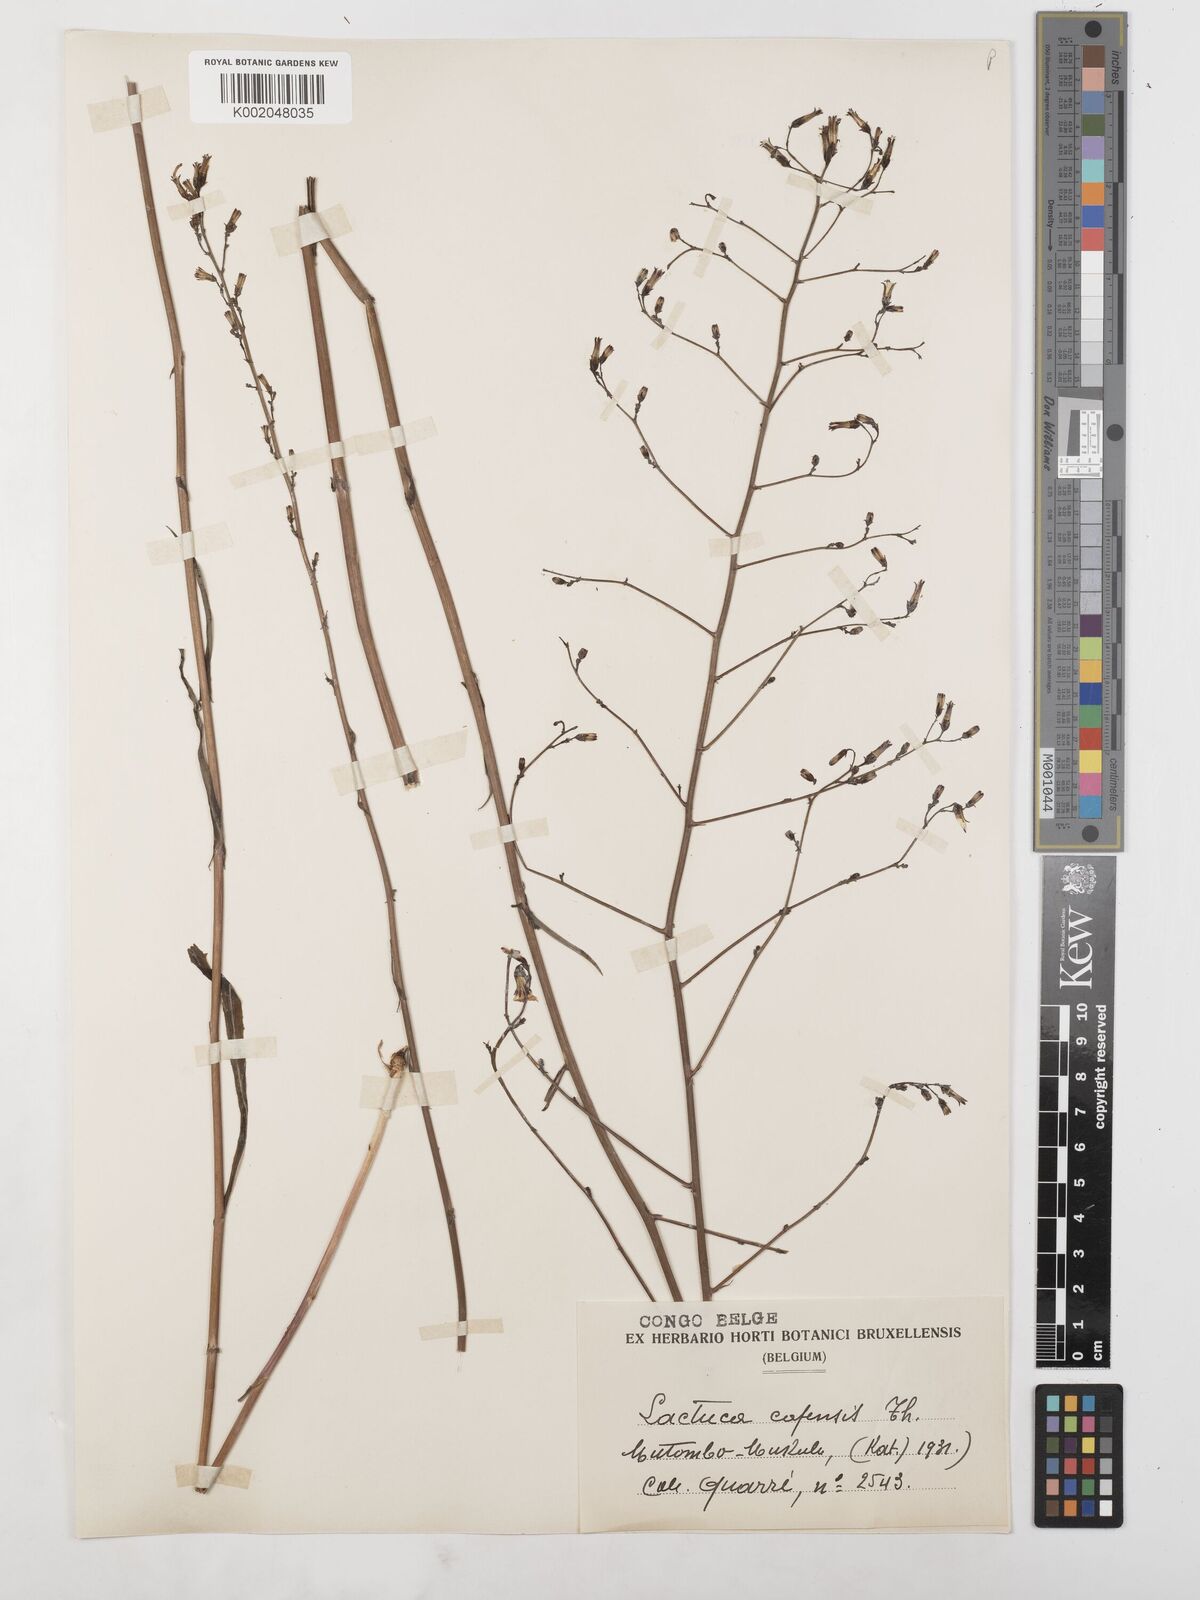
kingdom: Plantae
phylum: Tracheophyta
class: Magnoliopsida
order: Asterales
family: Asteraceae
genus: Lactuca
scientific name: Lactuca inermis
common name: Wild lettuce
